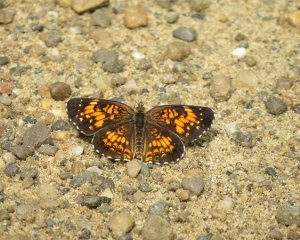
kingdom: Animalia
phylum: Arthropoda
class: Insecta
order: Lepidoptera
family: Nymphalidae
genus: Chlosyne
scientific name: Chlosyne harrisii
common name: Harris's Checkerspot
